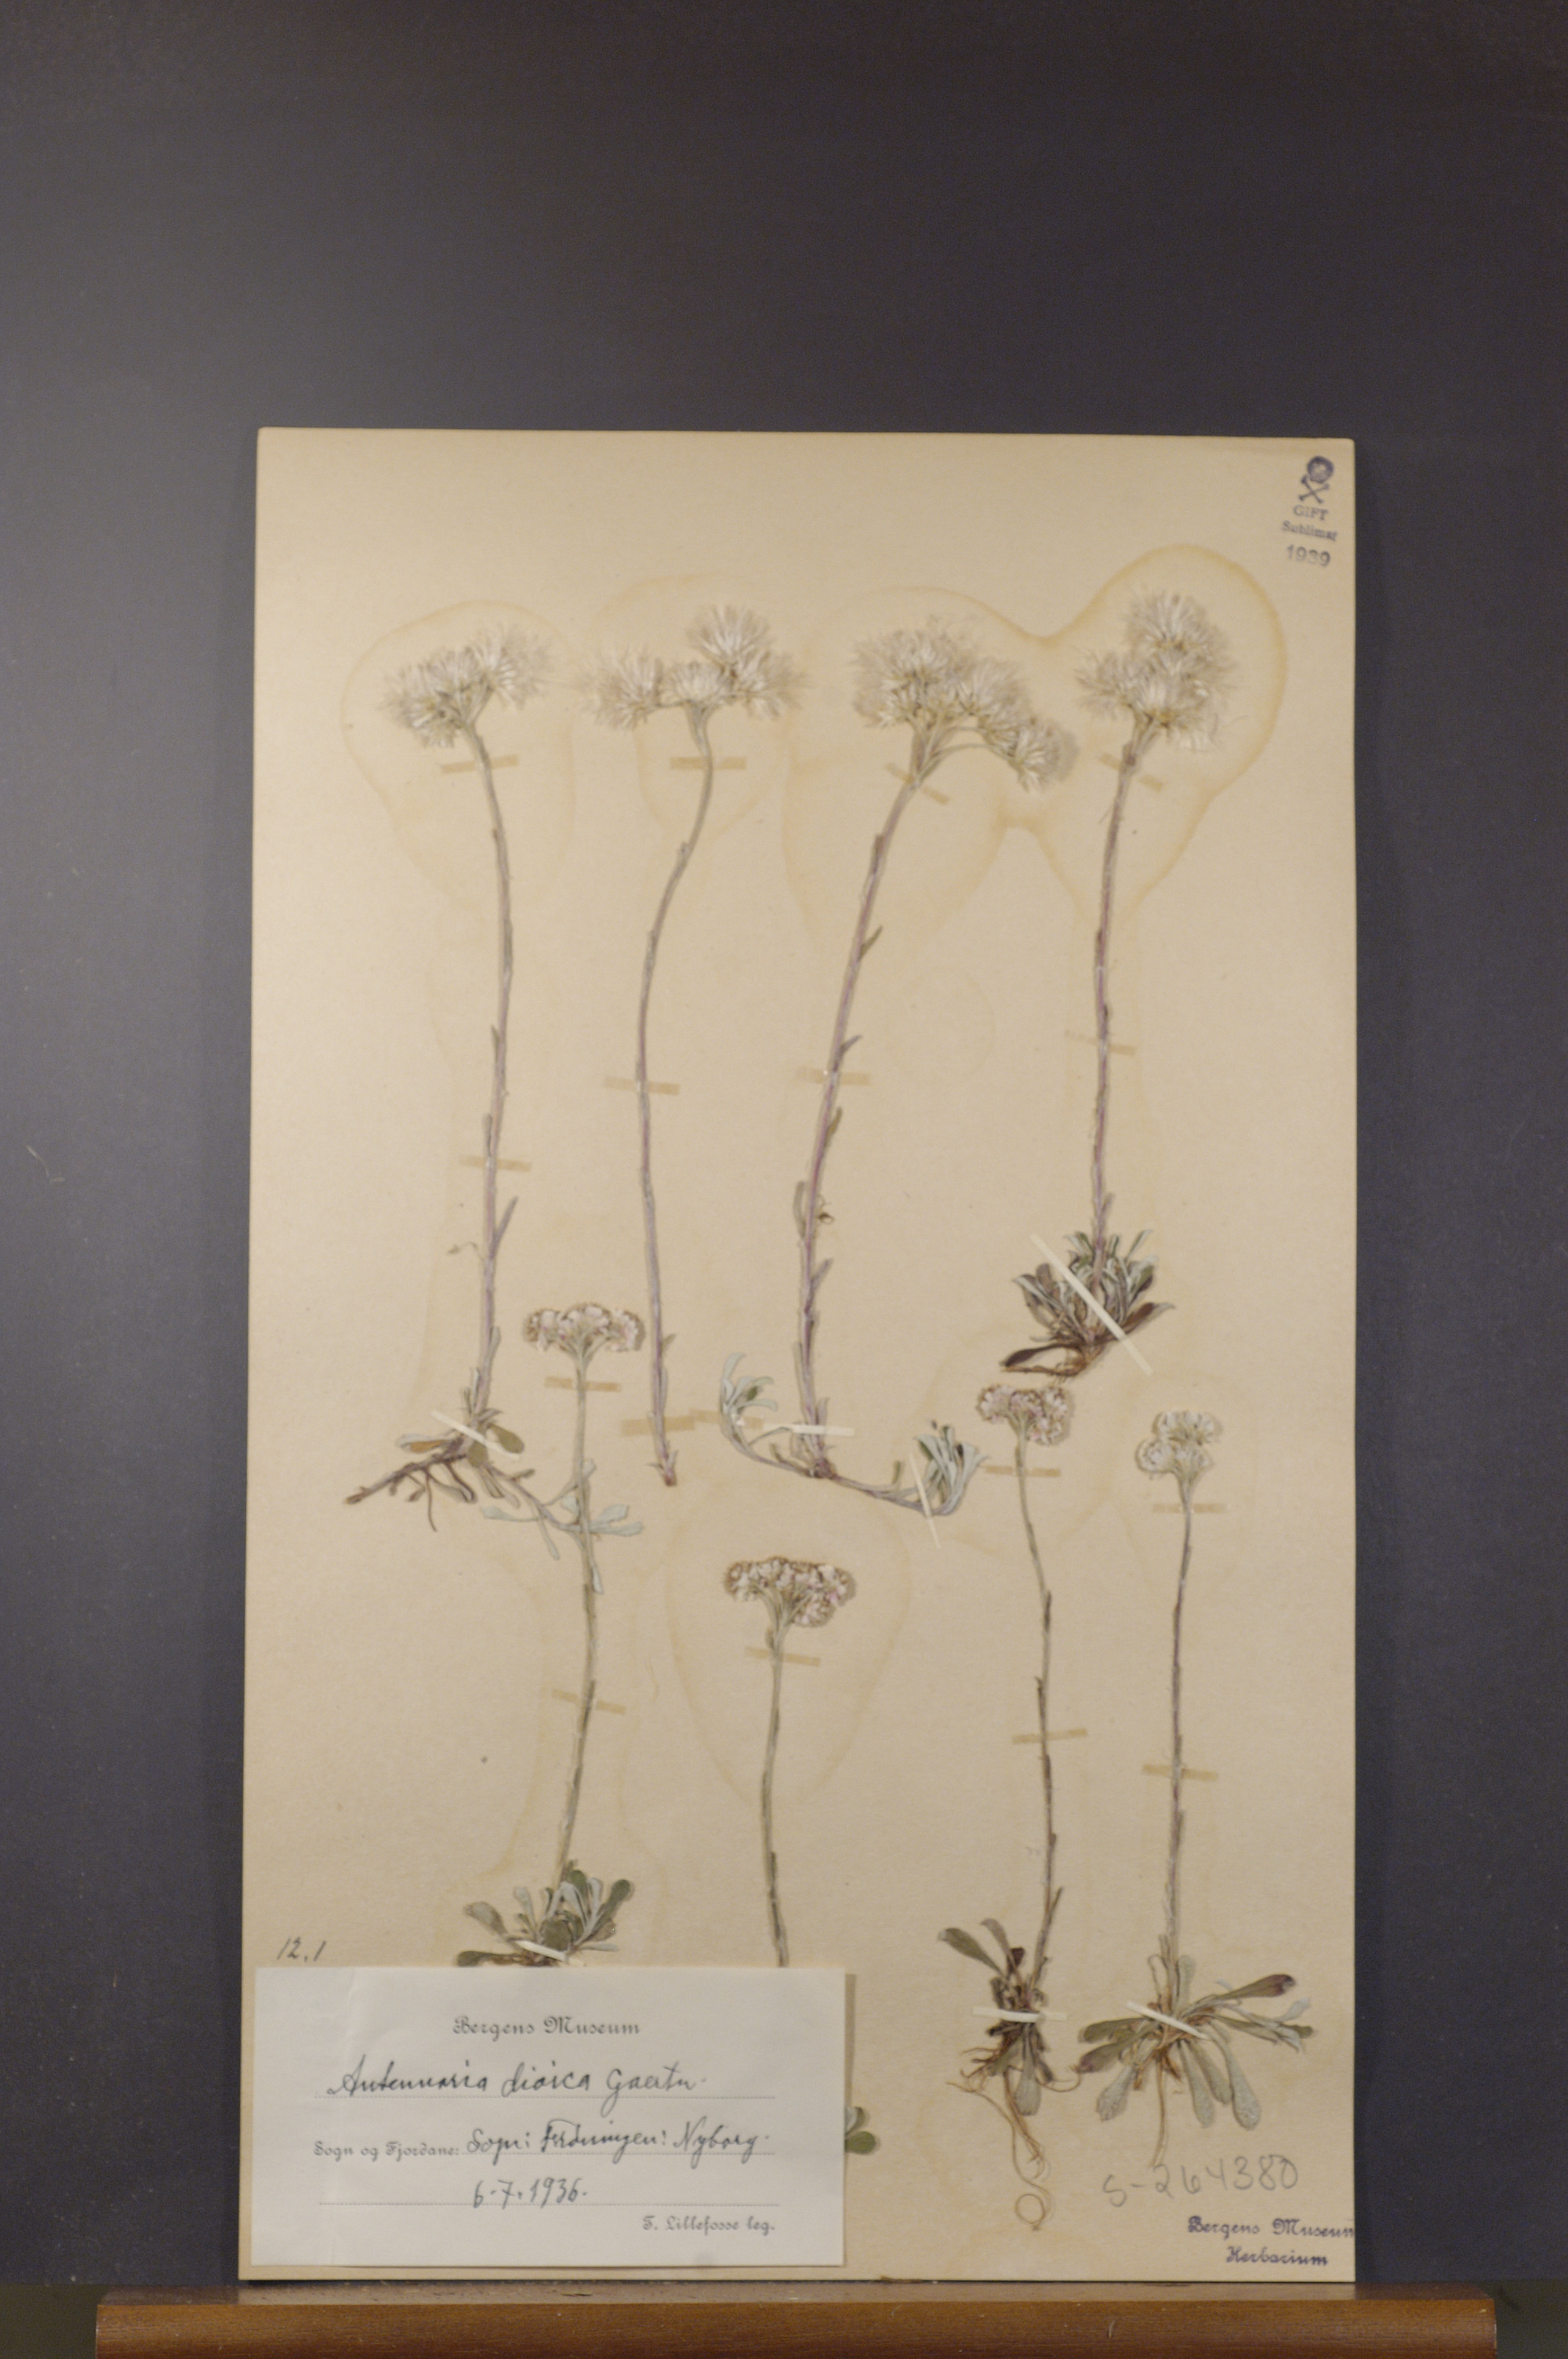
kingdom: Plantae
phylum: Tracheophyta
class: Magnoliopsida
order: Asterales
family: Asteraceae
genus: Antennaria
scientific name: Antennaria dioica
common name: Mountain everlasting
